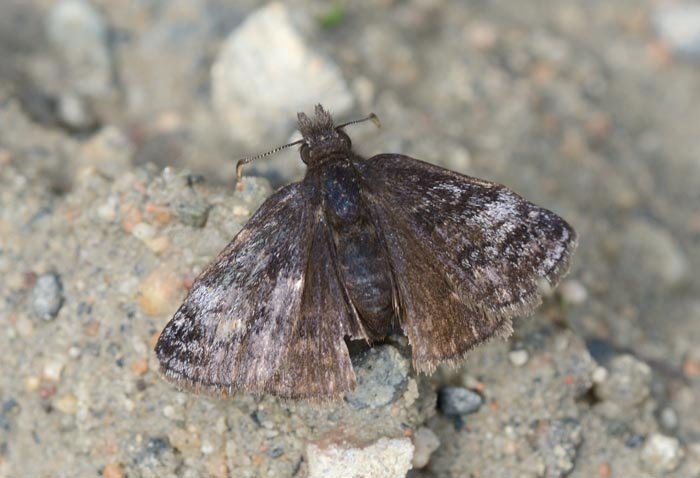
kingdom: Animalia
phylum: Arthropoda
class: Insecta
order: Lepidoptera
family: Hesperiidae
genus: Erynnis
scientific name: Erynnis icelus
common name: Dreamy Duskywing
